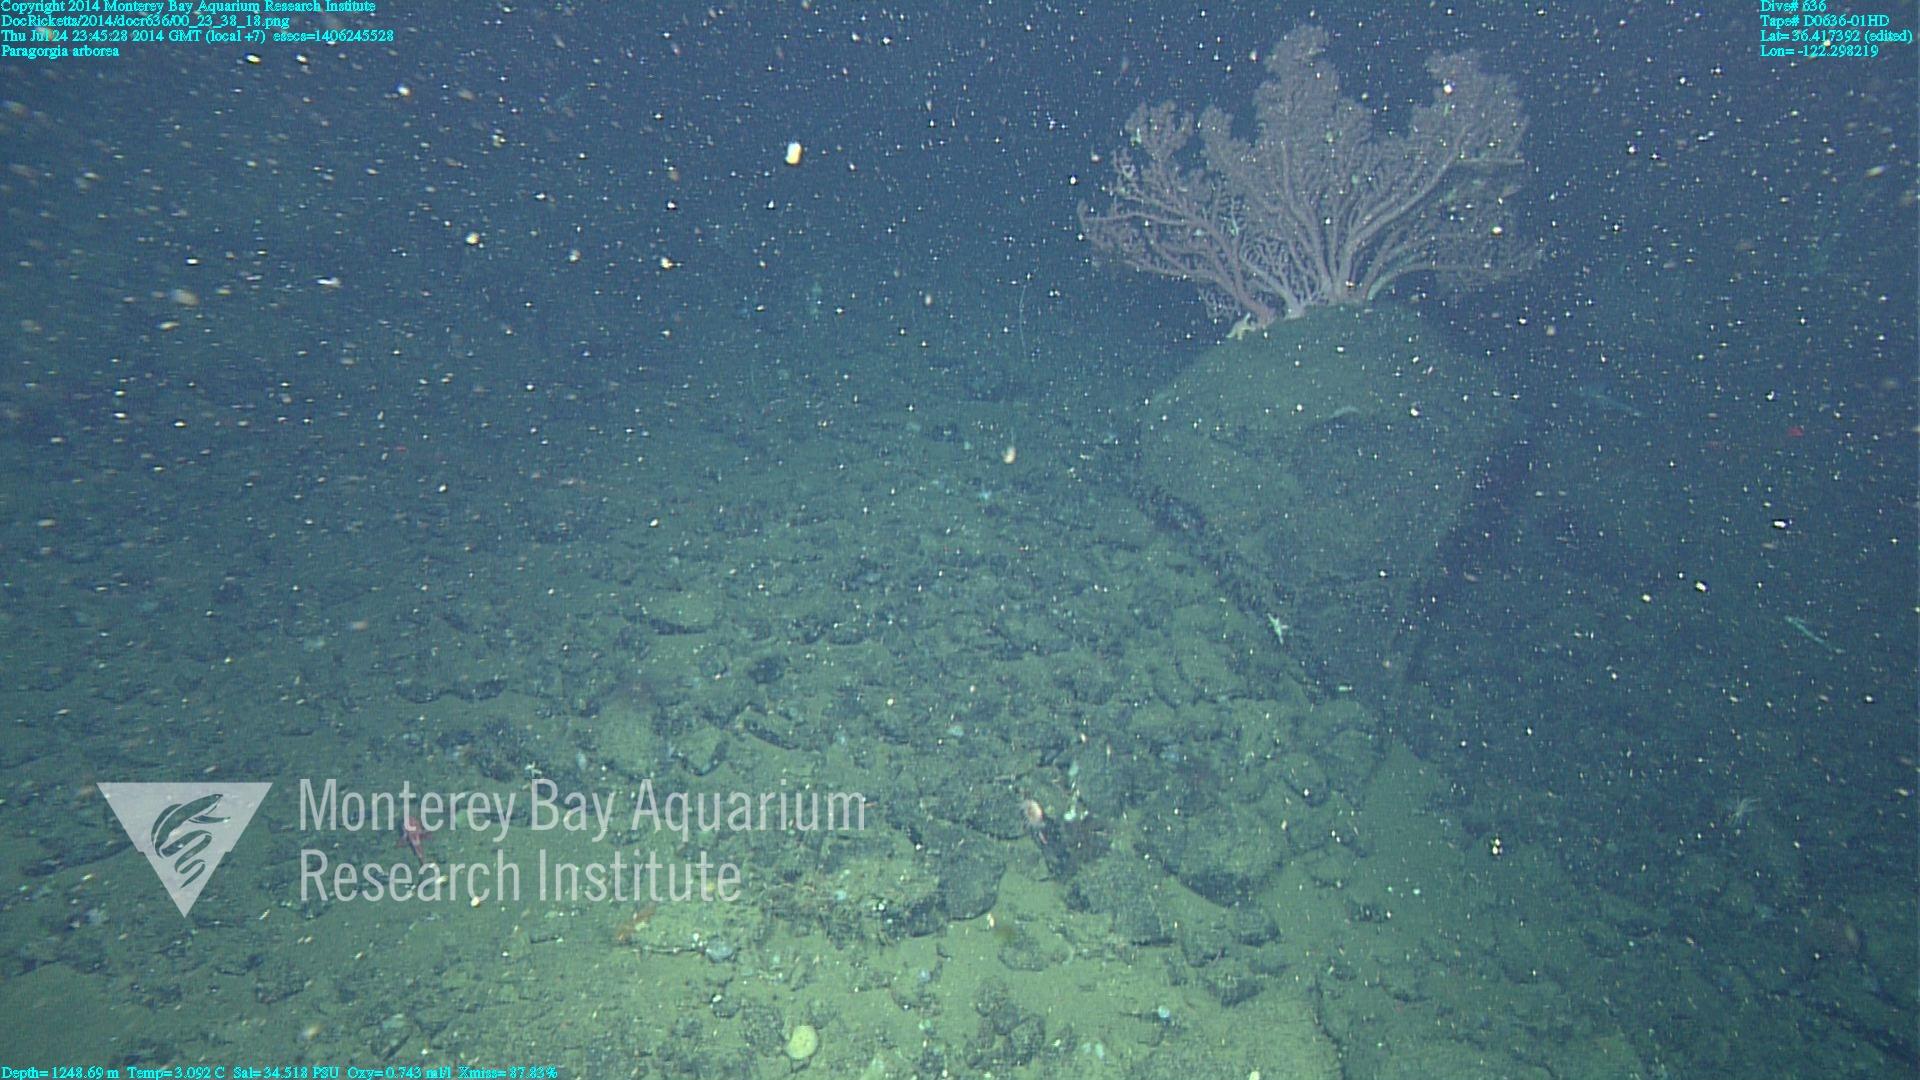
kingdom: Animalia
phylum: Cnidaria
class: Anthozoa
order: Scleralcyonacea
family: Coralliidae
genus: Paragorgia
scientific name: Paragorgia arborea
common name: Bubble gum coral
